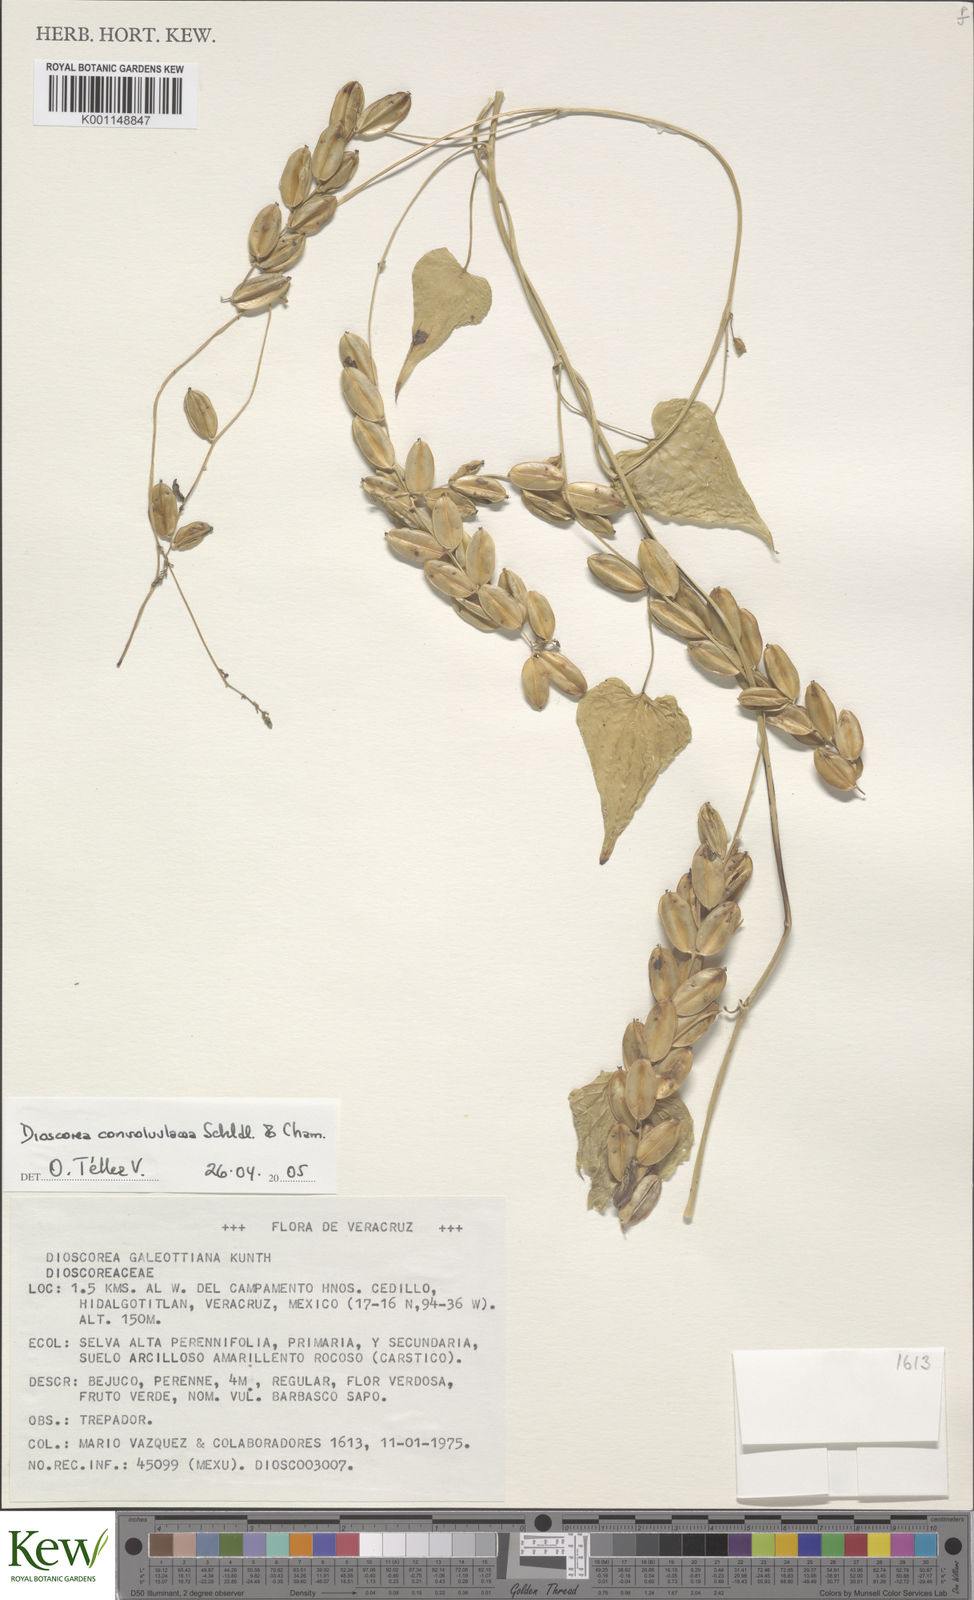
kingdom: Plantae
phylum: Tracheophyta
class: Liliopsida
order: Dioscoreales
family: Dioscoreaceae
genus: Dioscorea
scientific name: Dioscorea convolvulacea
